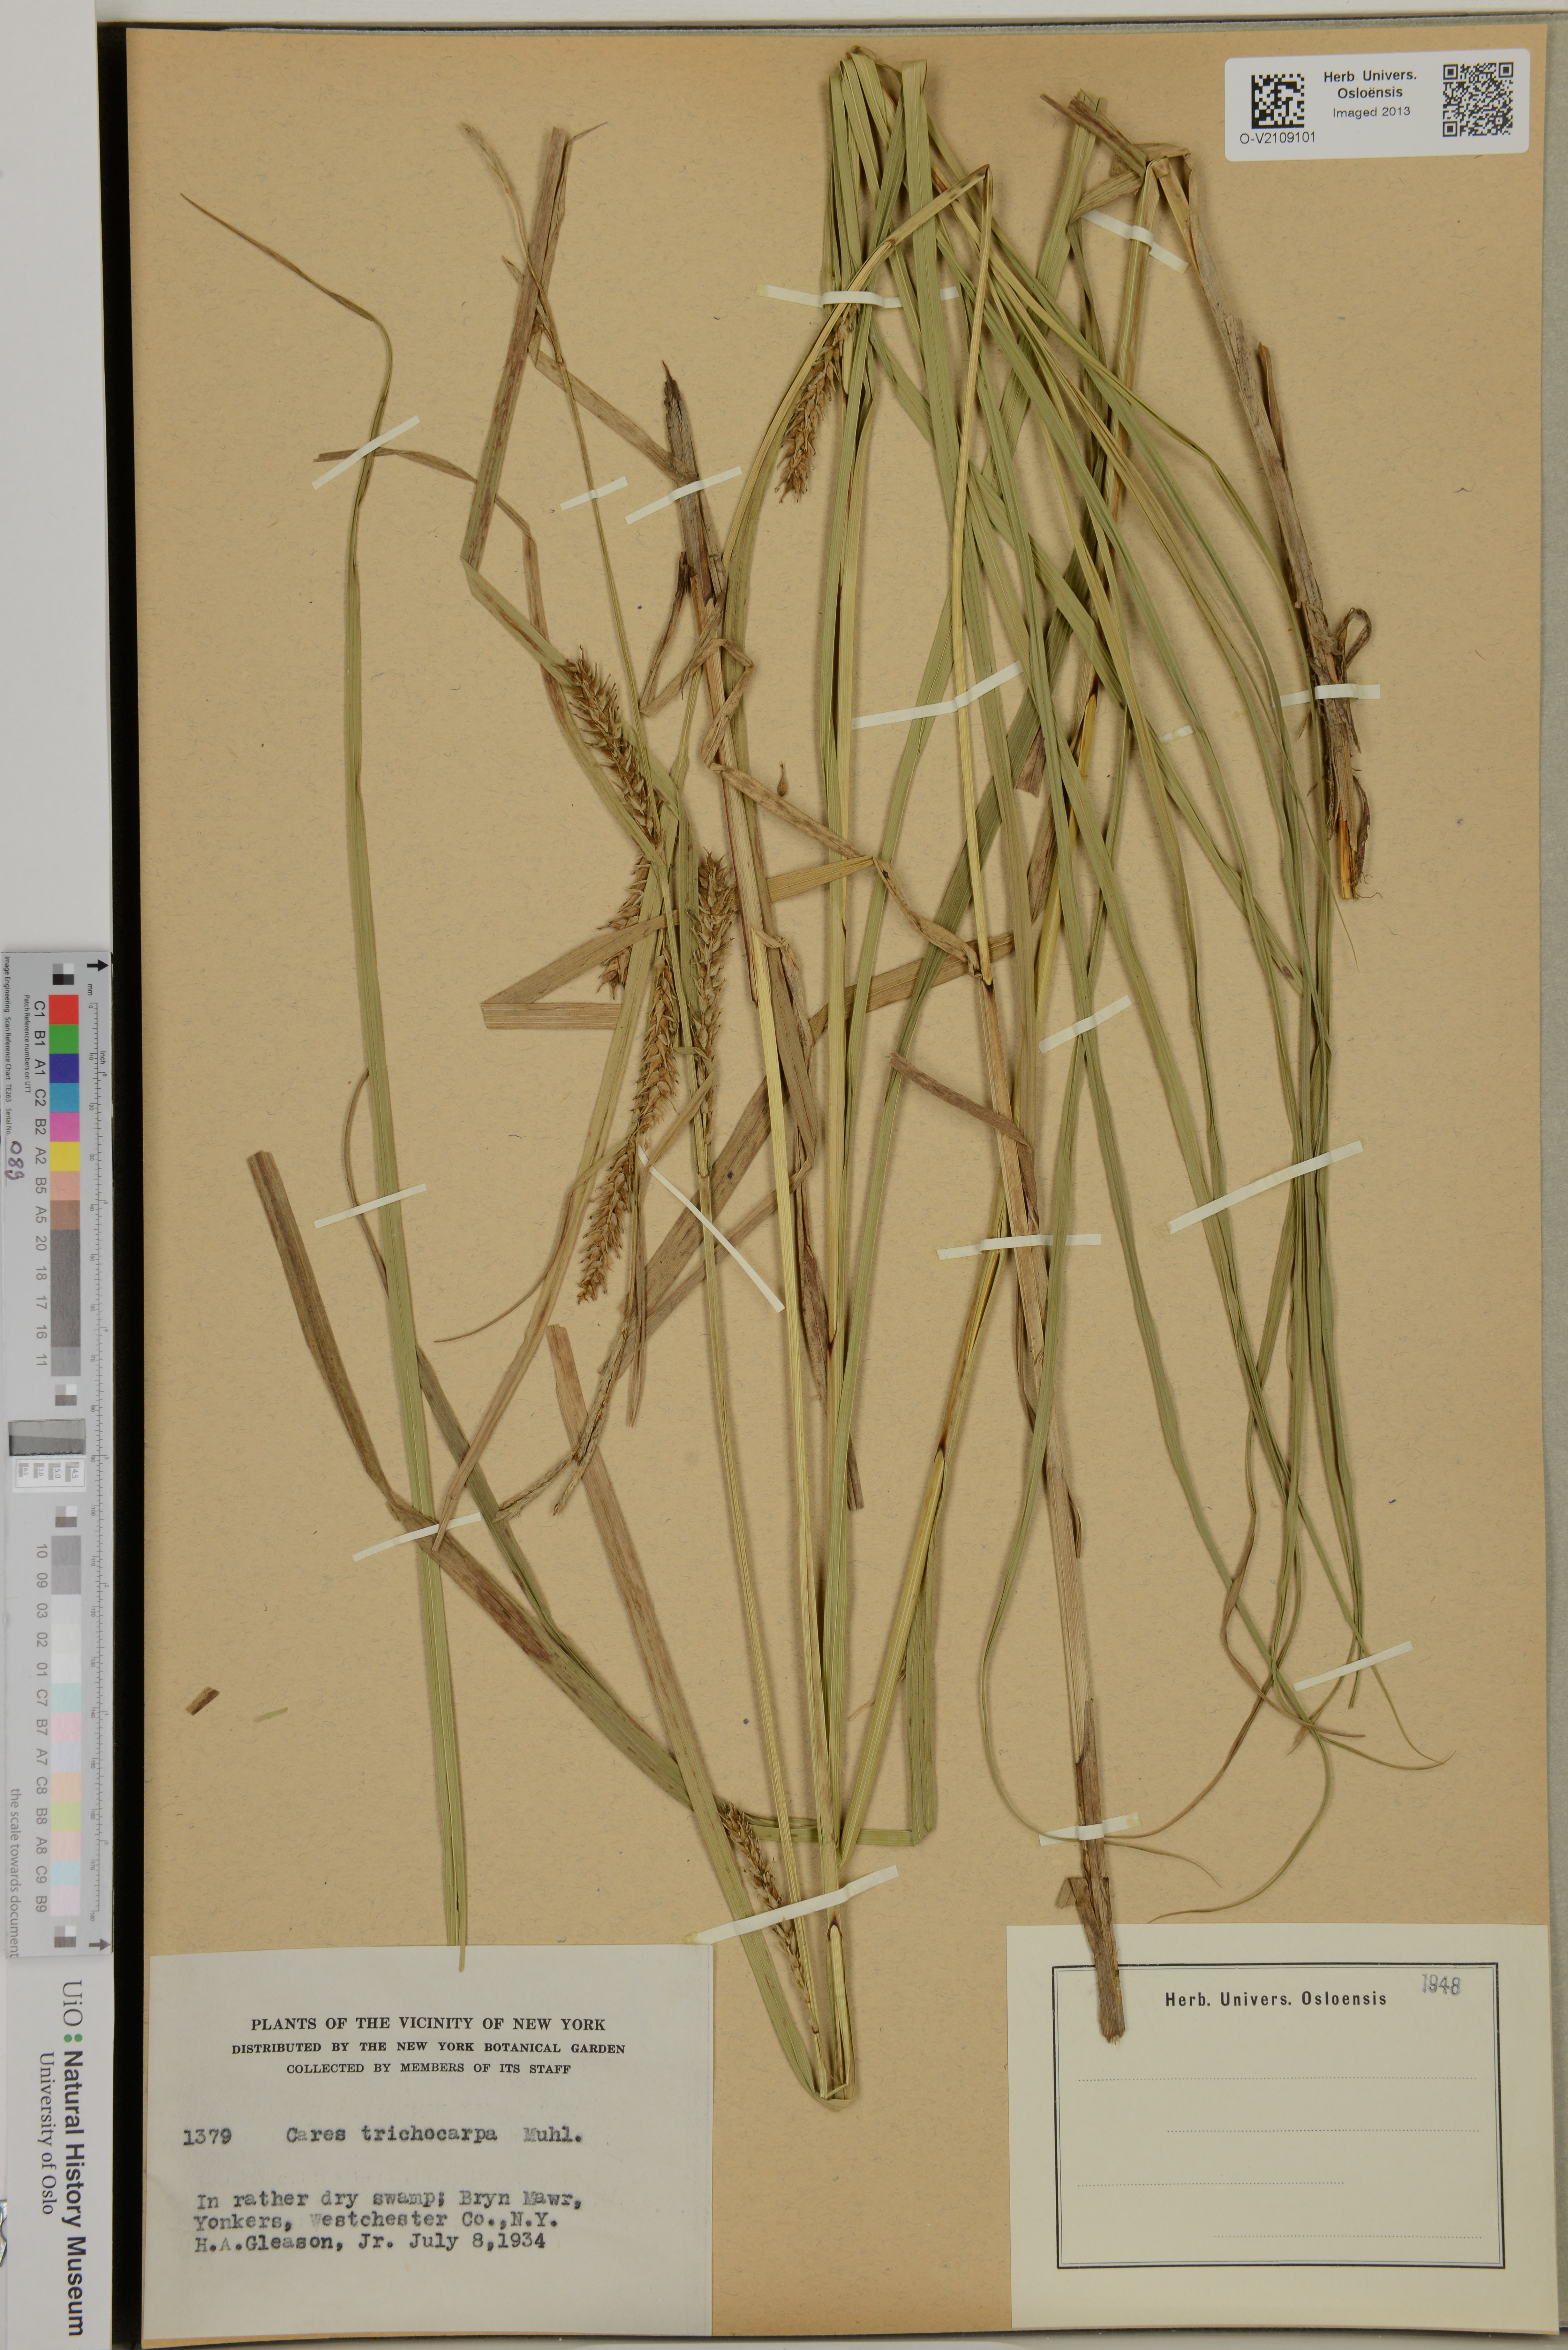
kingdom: Plantae
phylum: Tracheophyta
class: Liliopsida
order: Poales
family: Cyperaceae
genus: Carex
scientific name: Carex trichocarpa
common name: Hairy-fruited lake sedge
